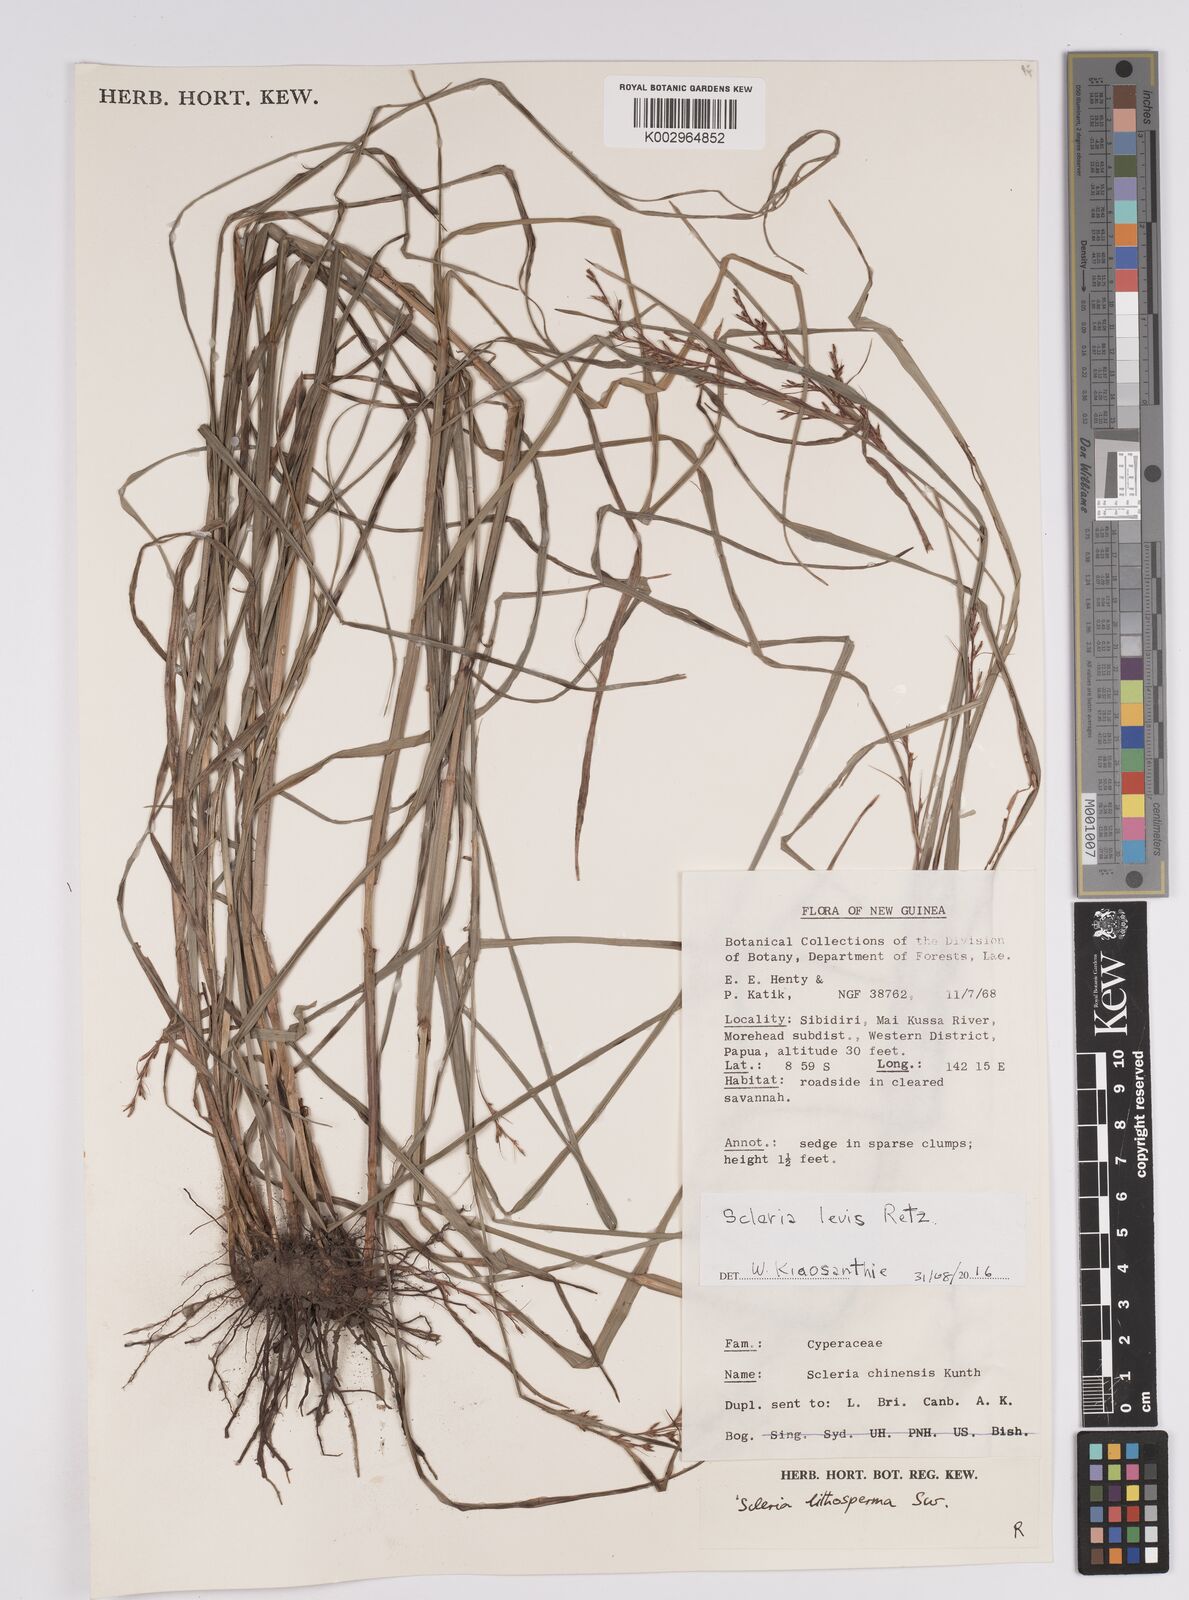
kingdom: Plantae
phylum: Tracheophyta
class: Liliopsida
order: Poales
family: Cyperaceae
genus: Scleria
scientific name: Scleria
